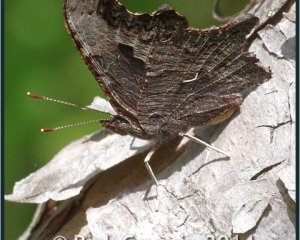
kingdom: Animalia
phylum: Arthropoda
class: Insecta
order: Lepidoptera
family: Nymphalidae
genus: Polygonia
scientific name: Polygonia progne
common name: Gray Comma
